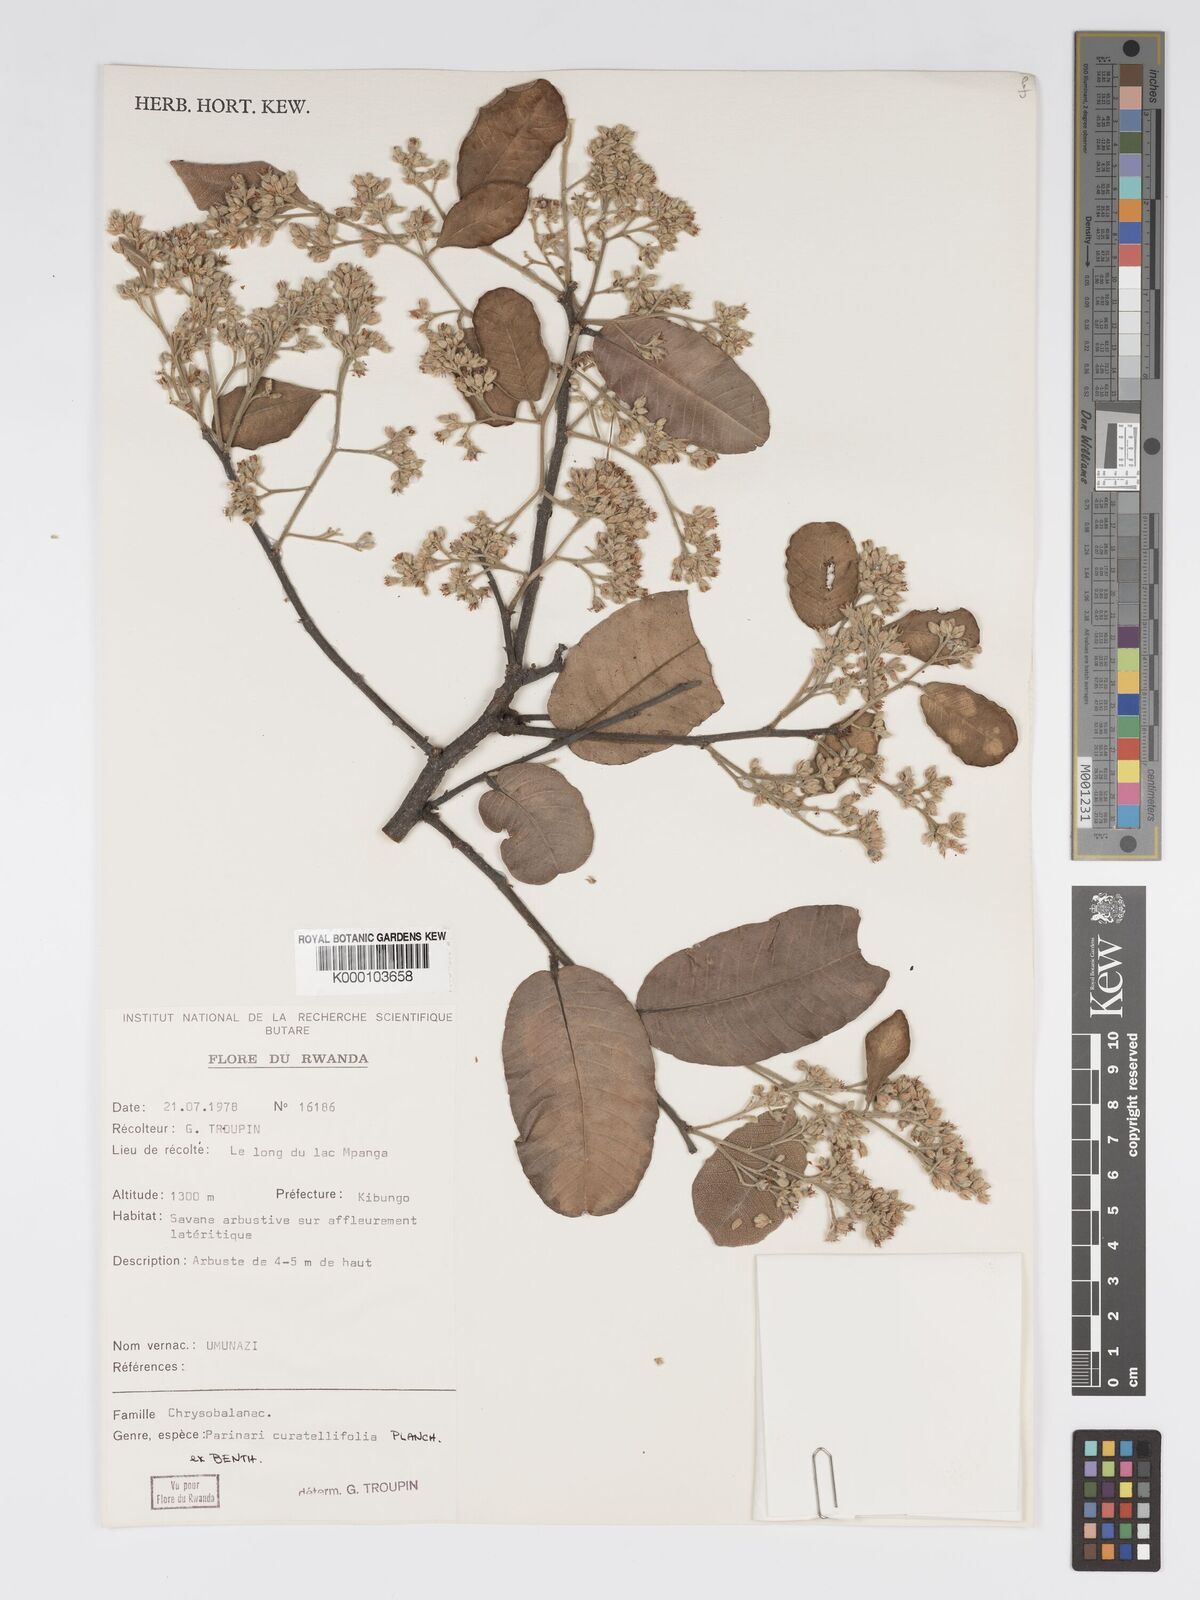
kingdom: Plantae
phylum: Tracheophyta
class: Magnoliopsida
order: Malpighiales
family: Chrysobalanaceae
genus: Parinari
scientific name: Parinari curatellifolia
